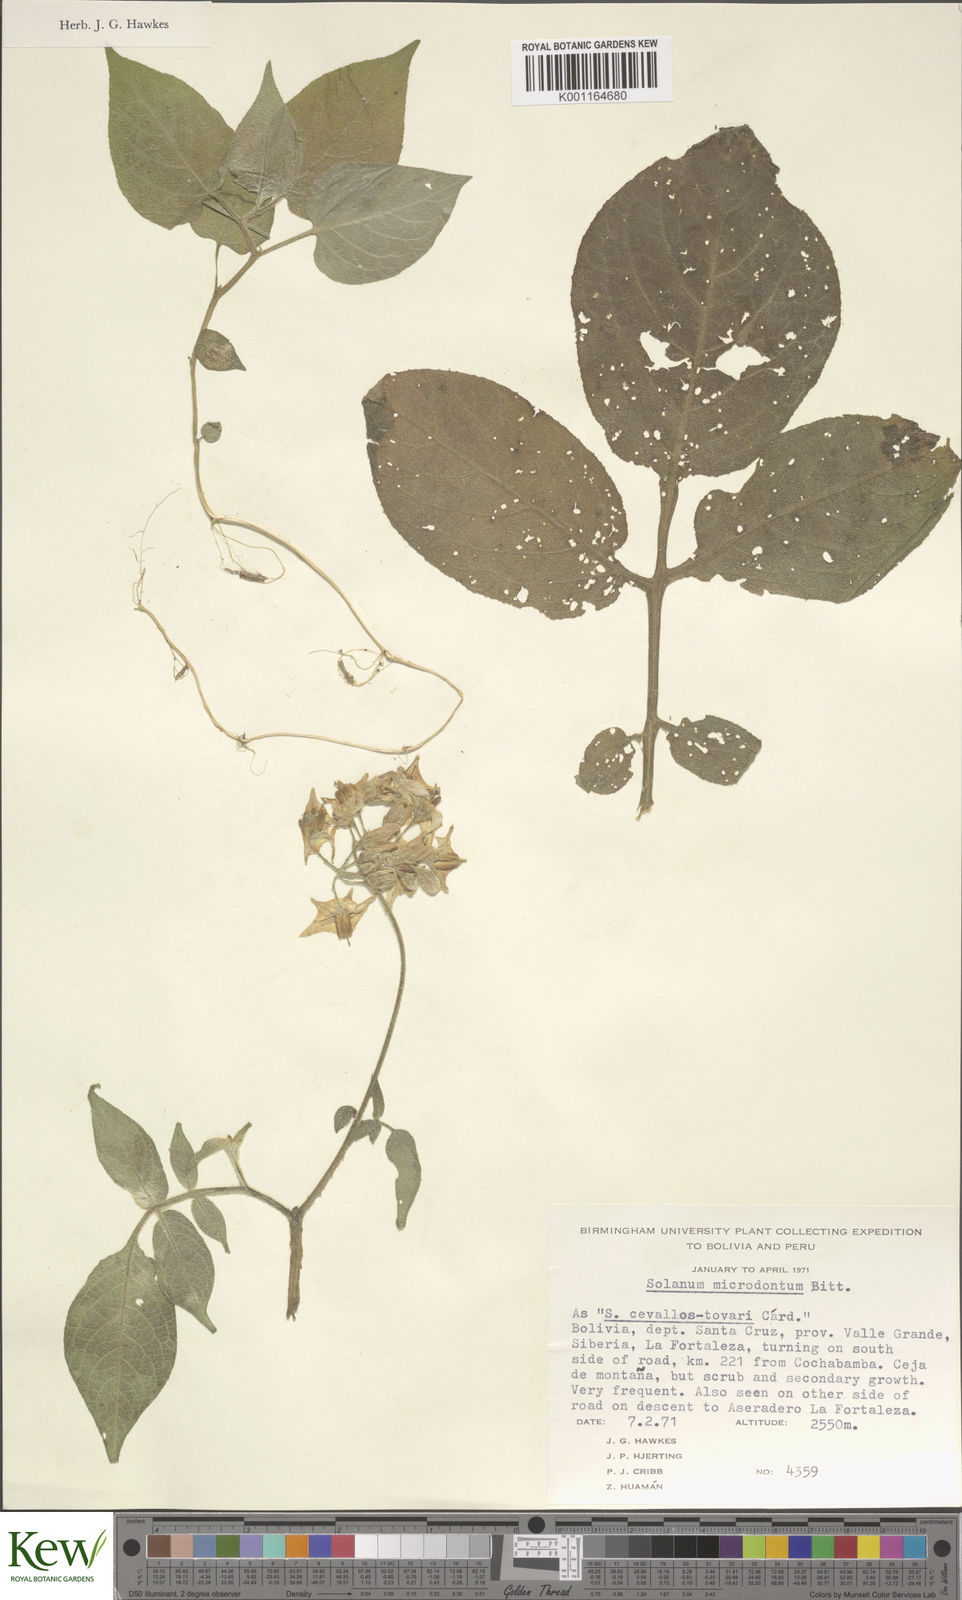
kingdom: Plantae
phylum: Tracheophyta
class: Magnoliopsida
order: Solanales
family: Solanaceae
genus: Solanum
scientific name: Solanum microdontum
